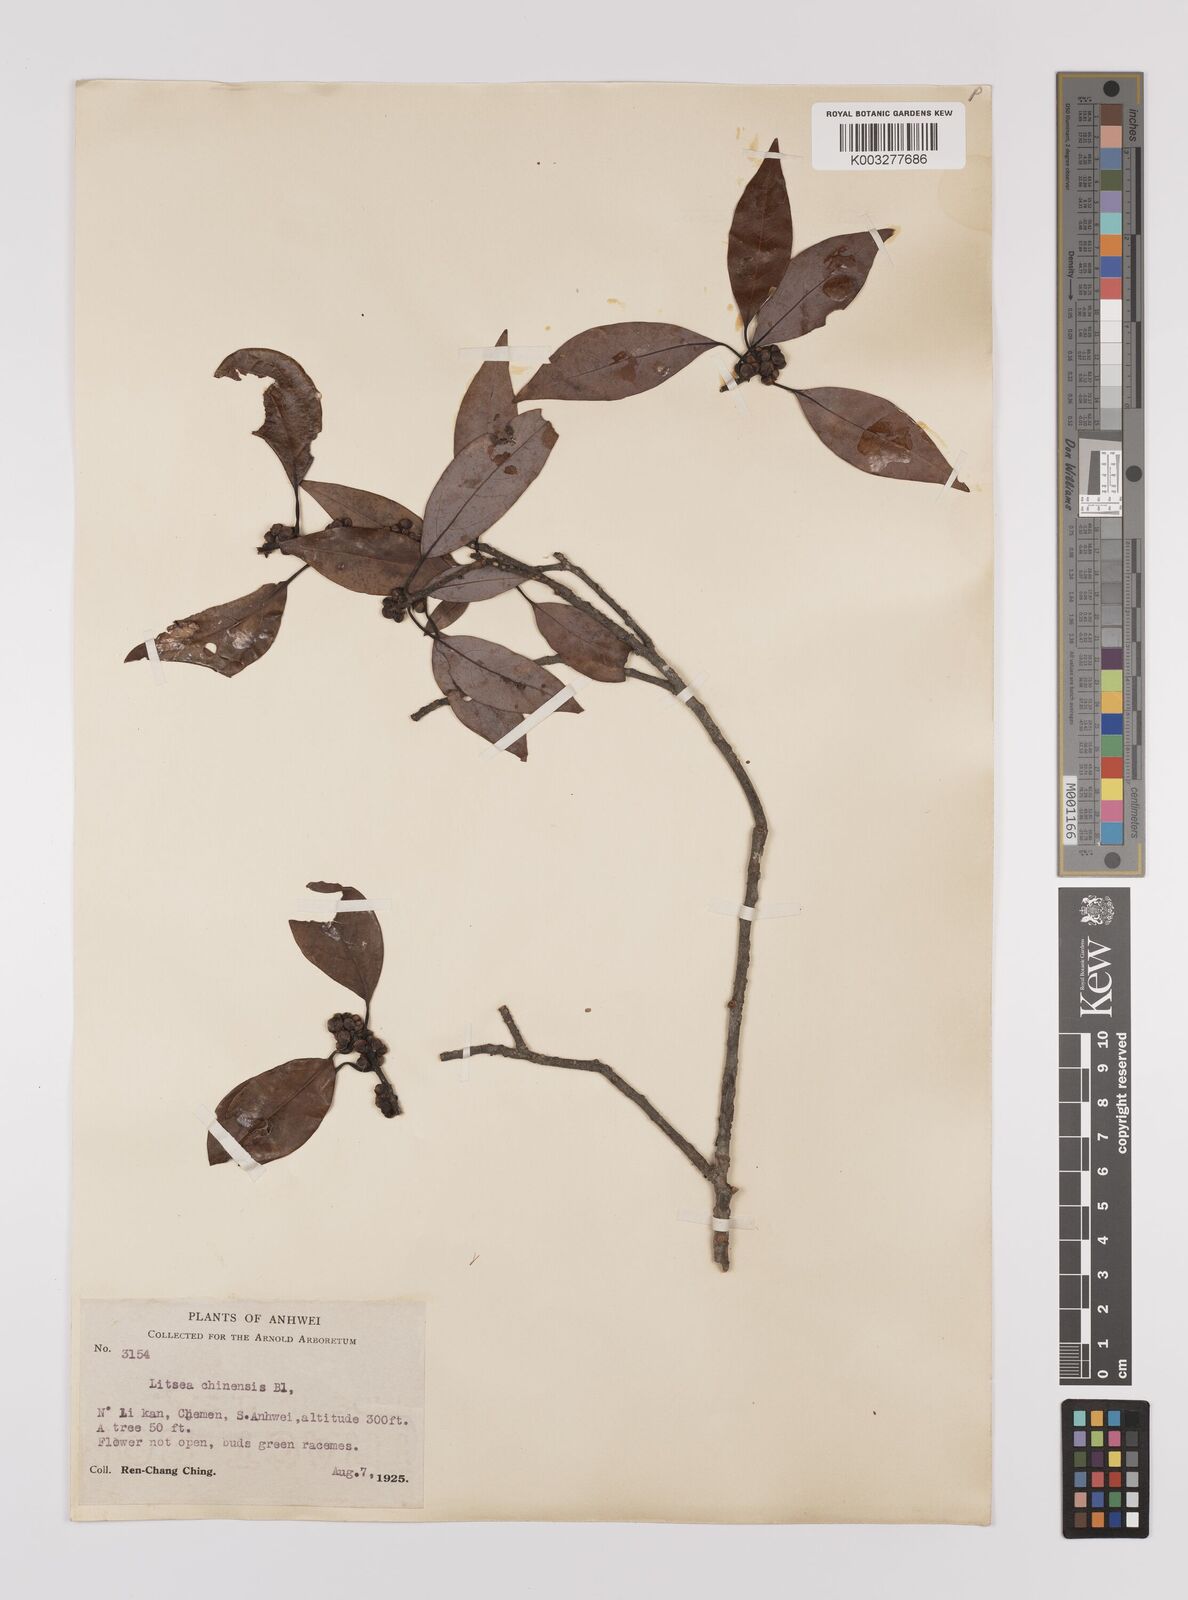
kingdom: Plantae
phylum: Tracheophyta
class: Magnoliopsida
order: Laurales
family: Lauraceae
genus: Litsea
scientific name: Litsea rotundifolia
